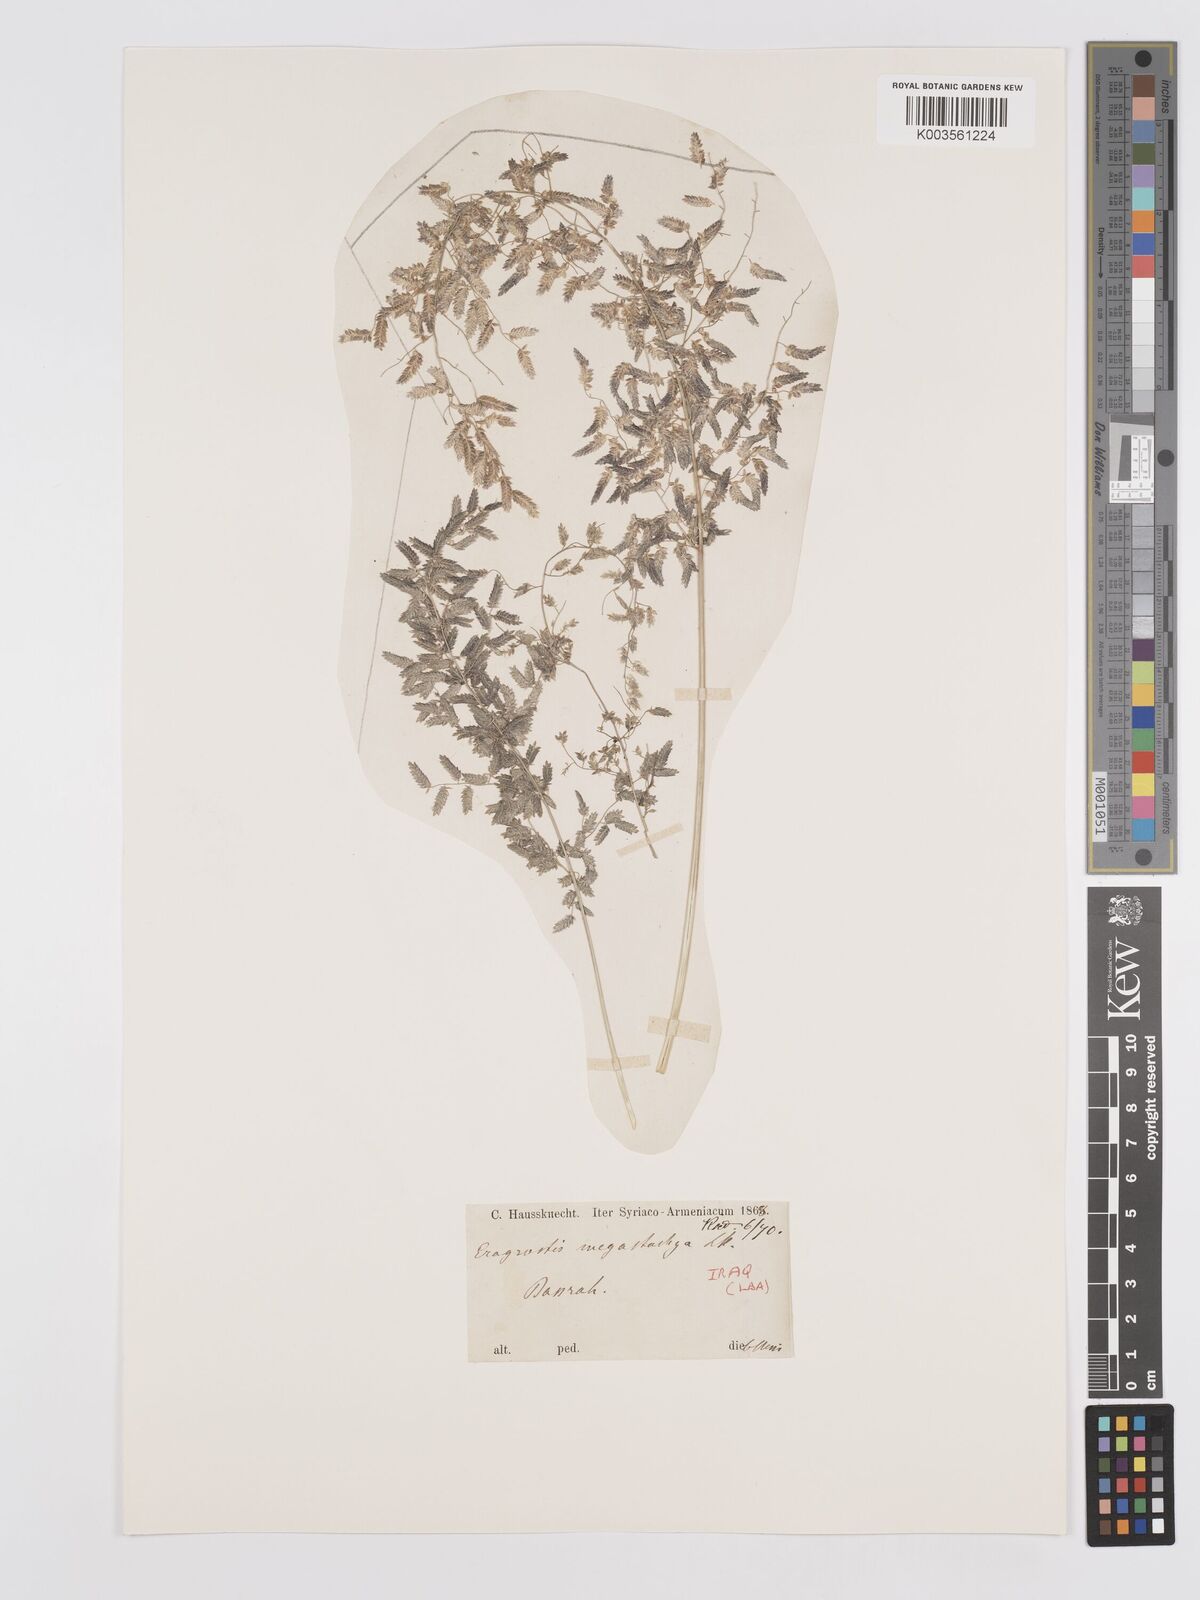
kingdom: Plantae
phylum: Tracheophyta
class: Liliopsida
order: Poales
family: Poaceae
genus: Eragrostis
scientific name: Eragrostis cilianensis
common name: Stinkgrass
